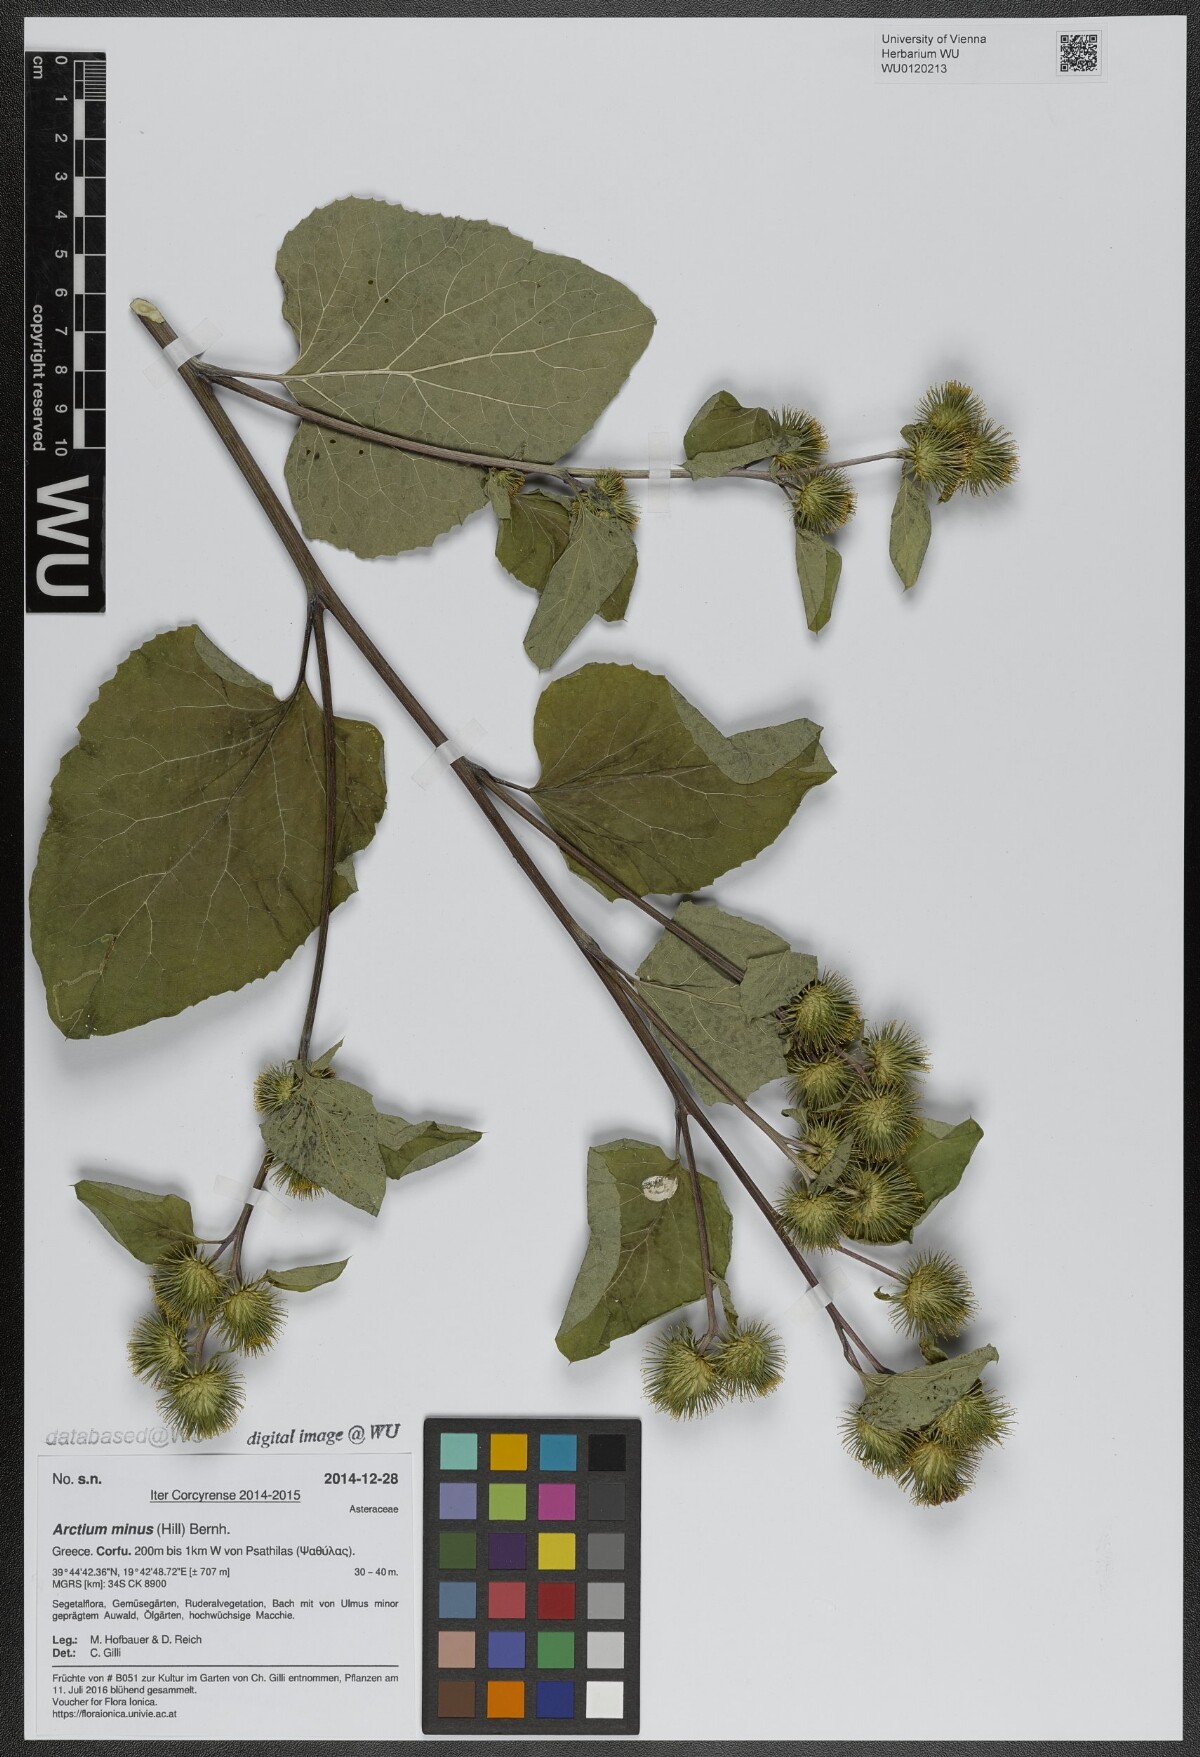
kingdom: Plantae
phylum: Tracheophyta
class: Magnoliopsida
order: Asterales
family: Asteraceae
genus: Arctium
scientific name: Arctium minus
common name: Lesser burdock
